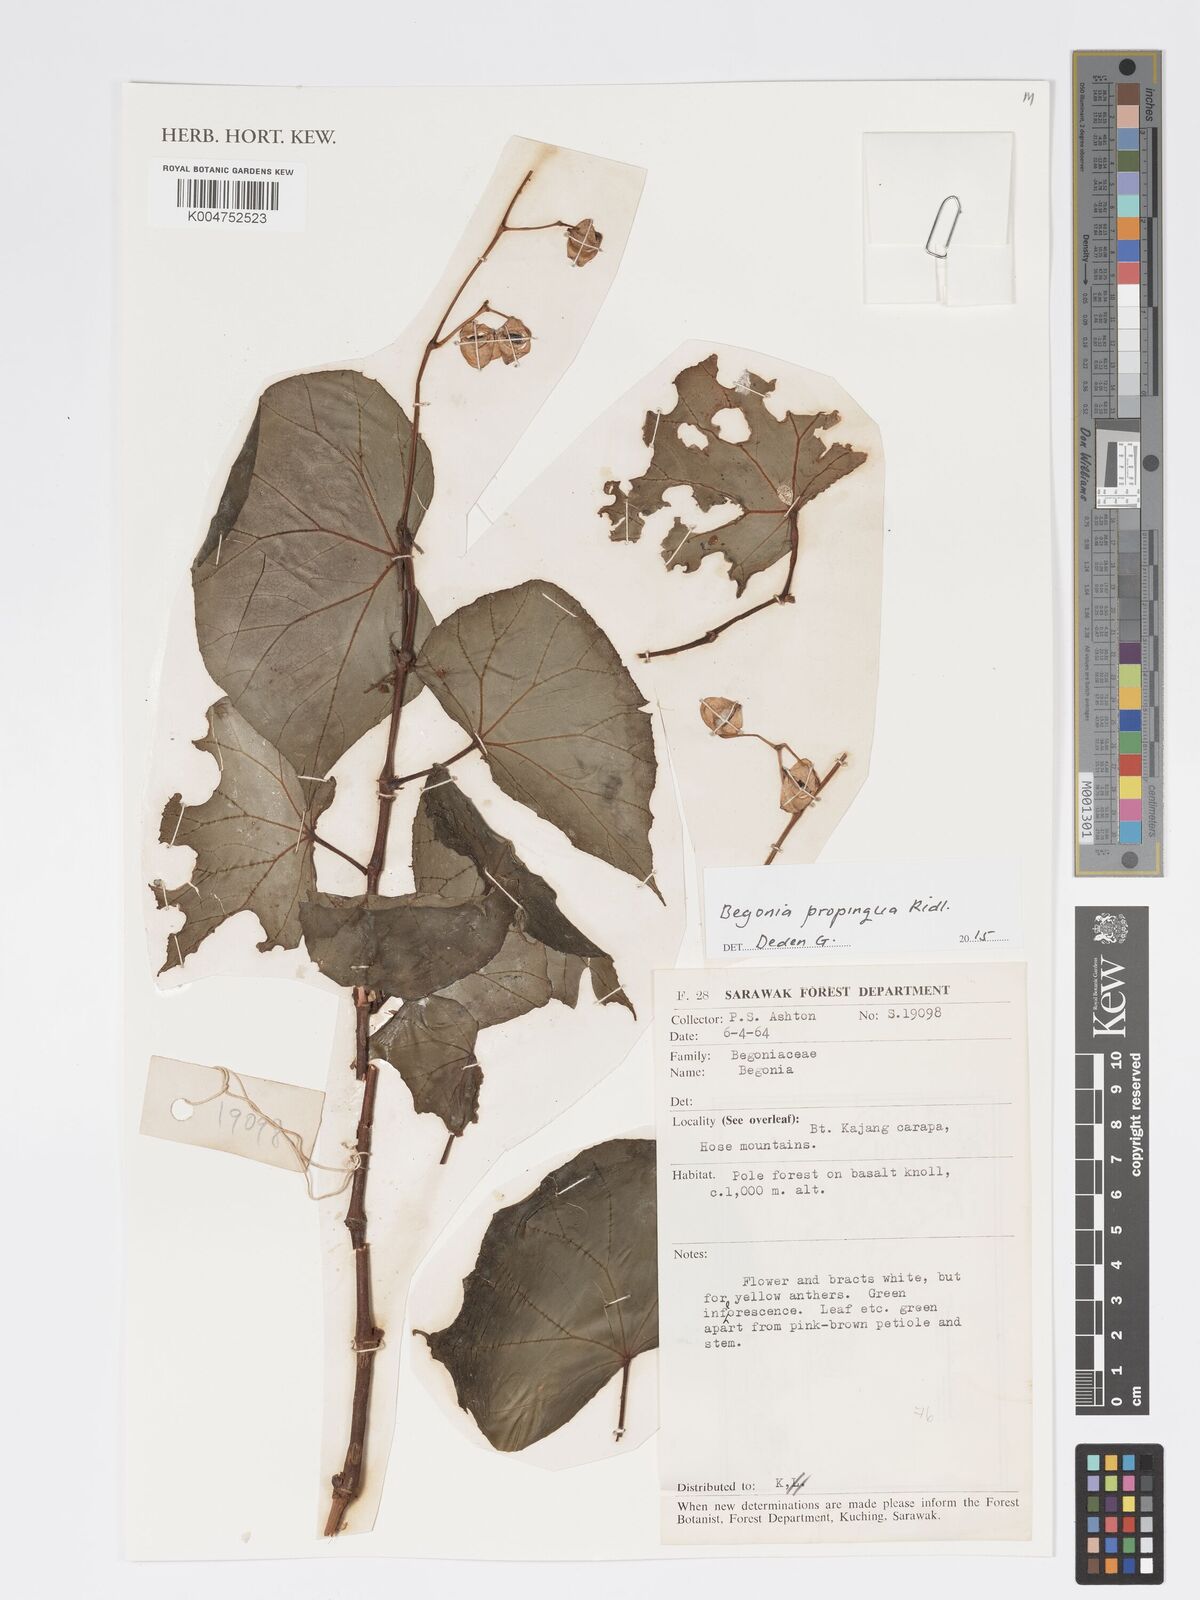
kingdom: Plantae
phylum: Tracheophyta
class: Magnoliopsida
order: Cucurbitales
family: Begoniaceae
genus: Begonia
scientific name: Begonia propinqua
